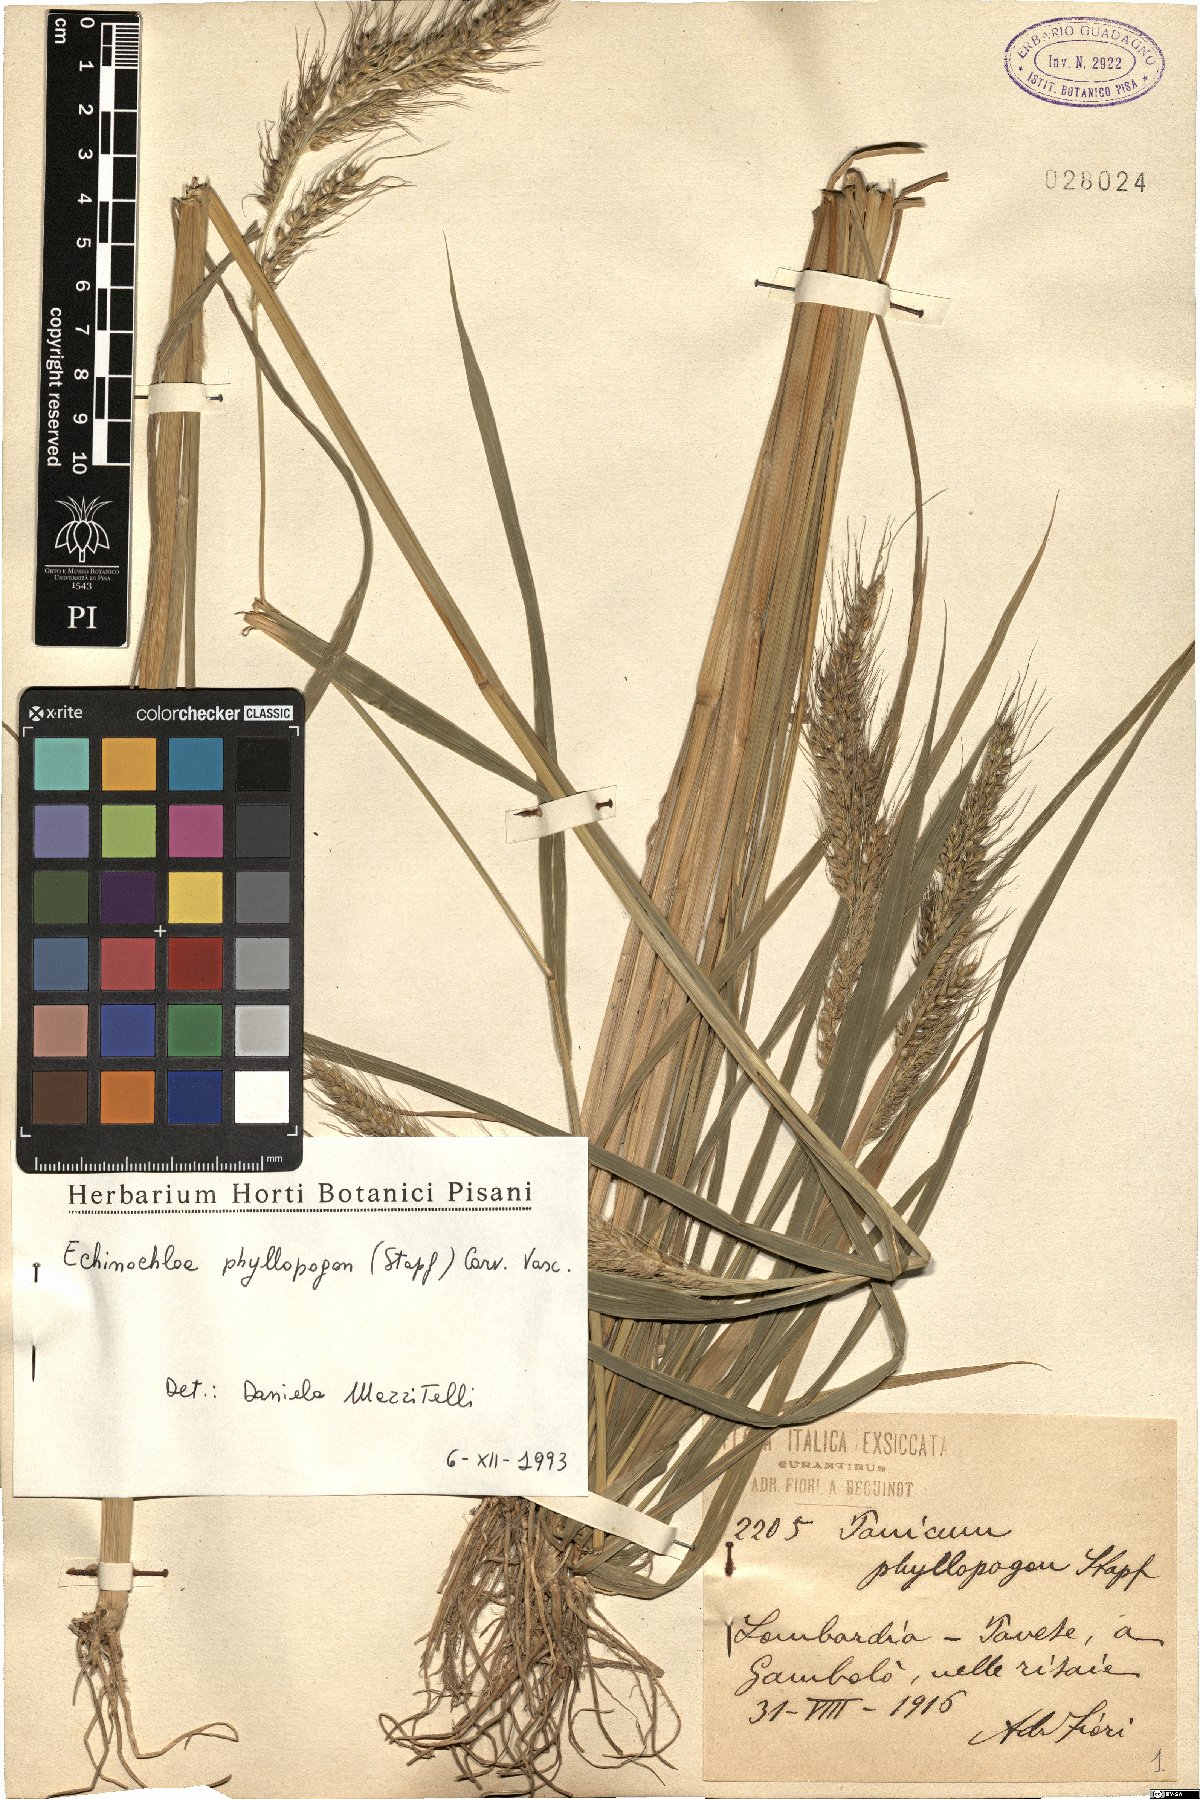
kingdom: Plantae
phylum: Tracheophyta
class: Liliopsida
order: Poales
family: Poaceae
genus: Echinochloa
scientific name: Echinochloa oryzoides
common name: Early water grass
